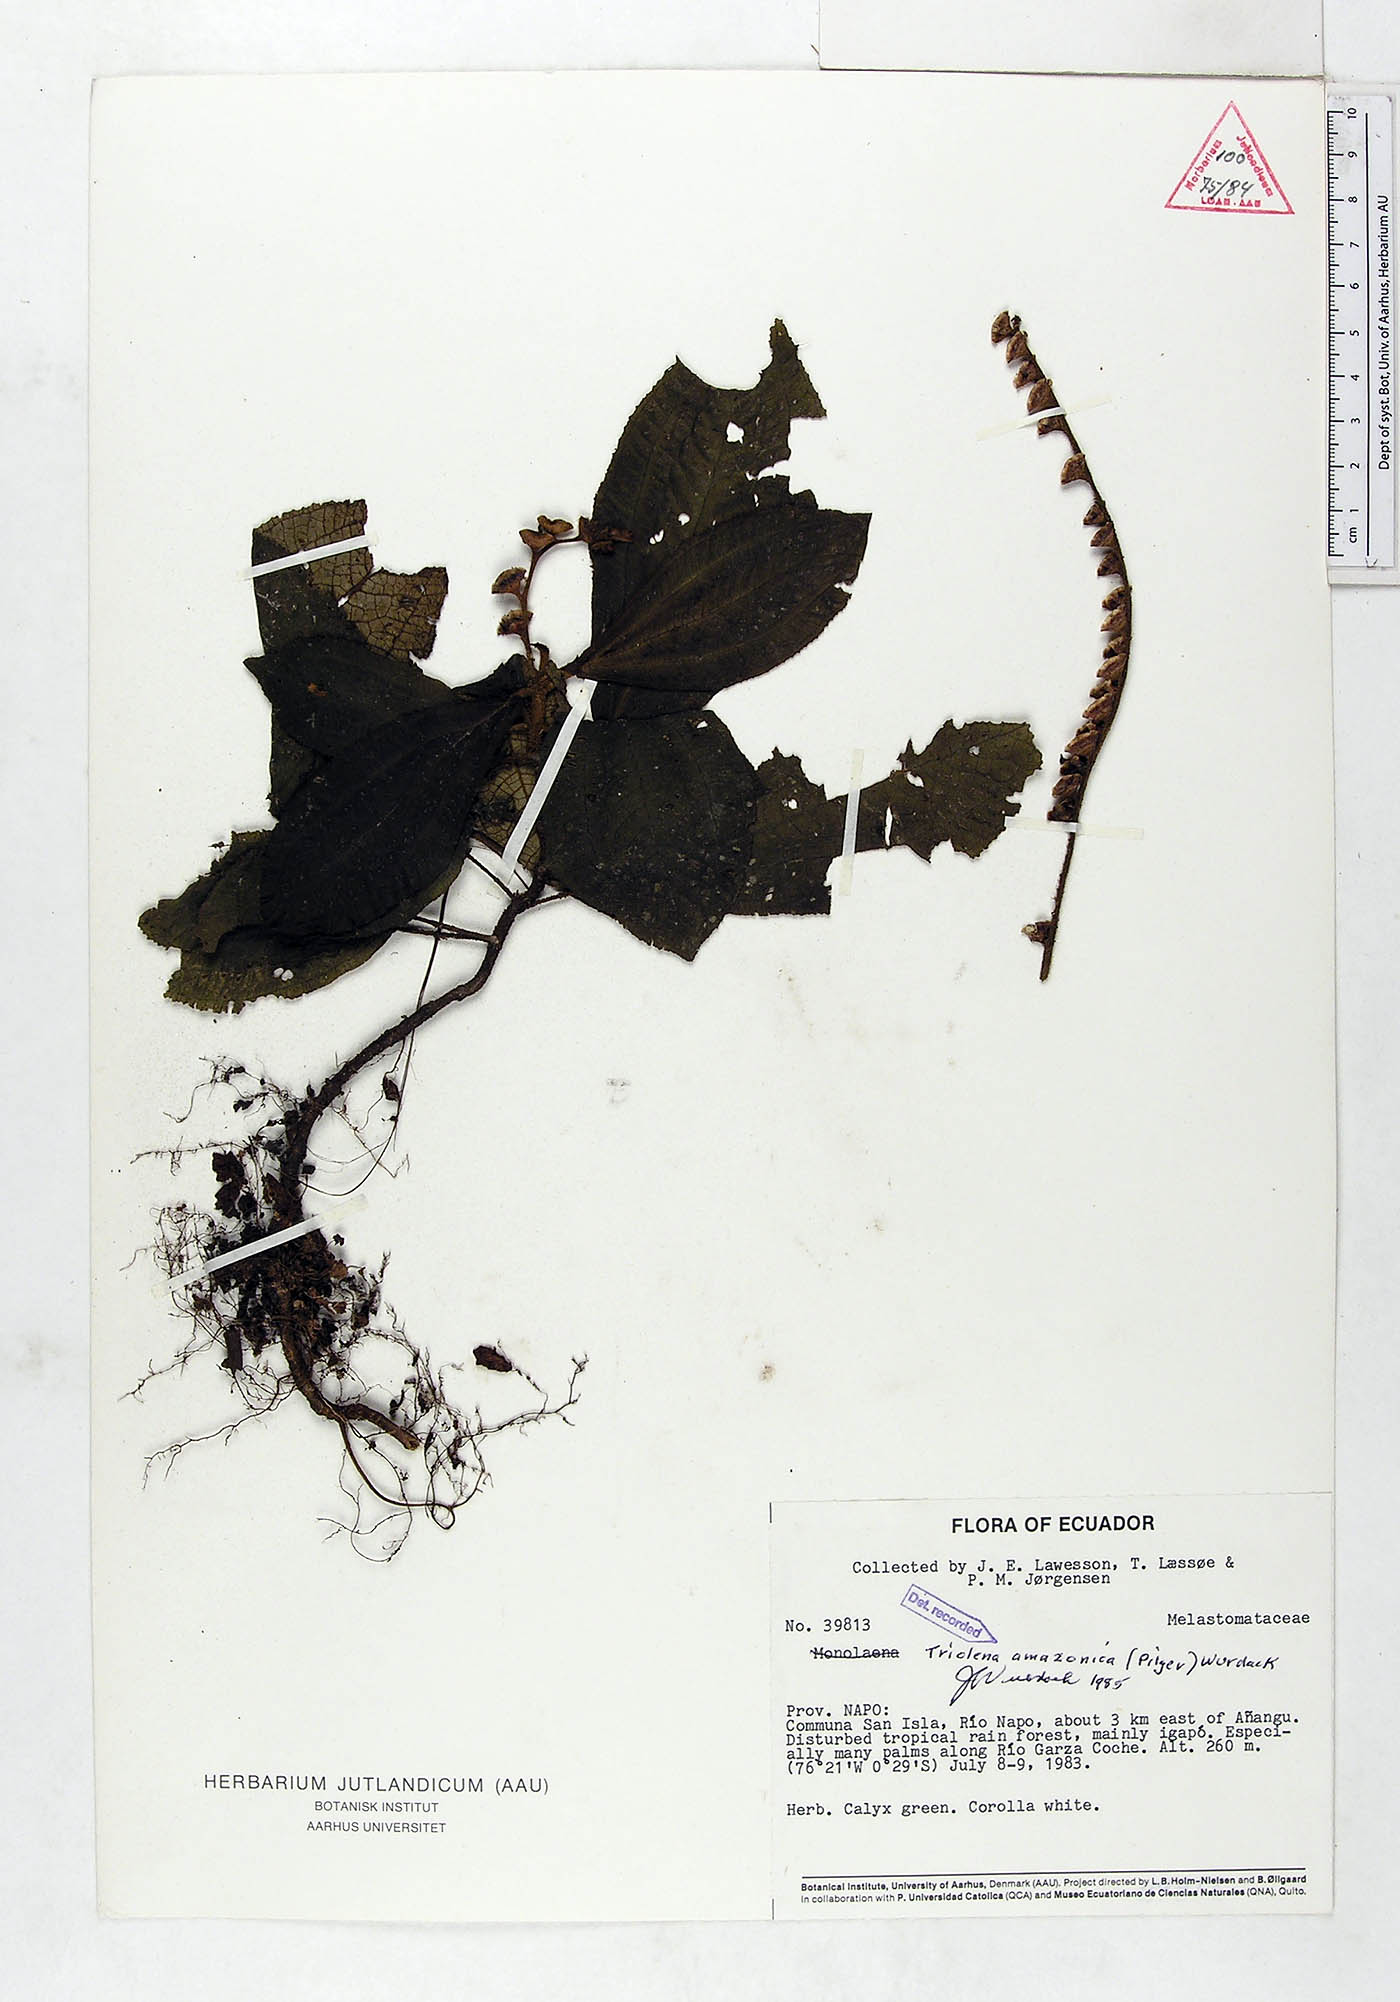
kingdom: Plantae
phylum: Tracheophyta
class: Magnoliopsida
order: Myrtales
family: Melastomataceae
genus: Triolena
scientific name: Triolena amazonica
